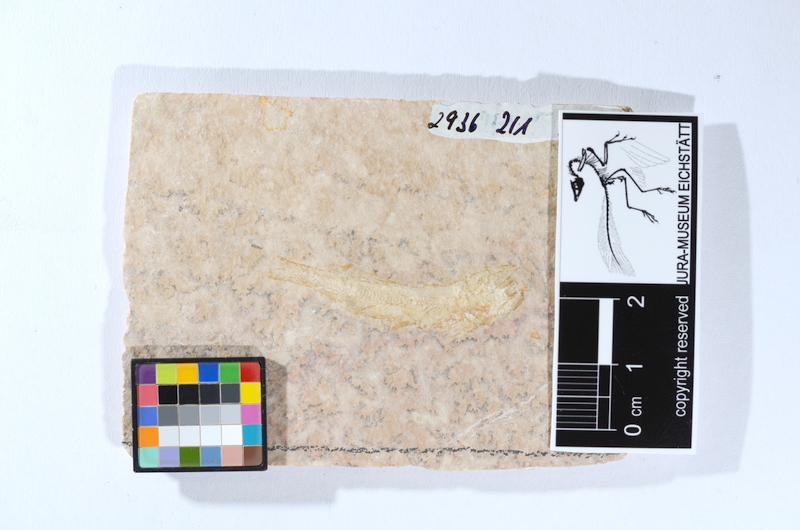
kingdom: Animalia
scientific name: Animalia
